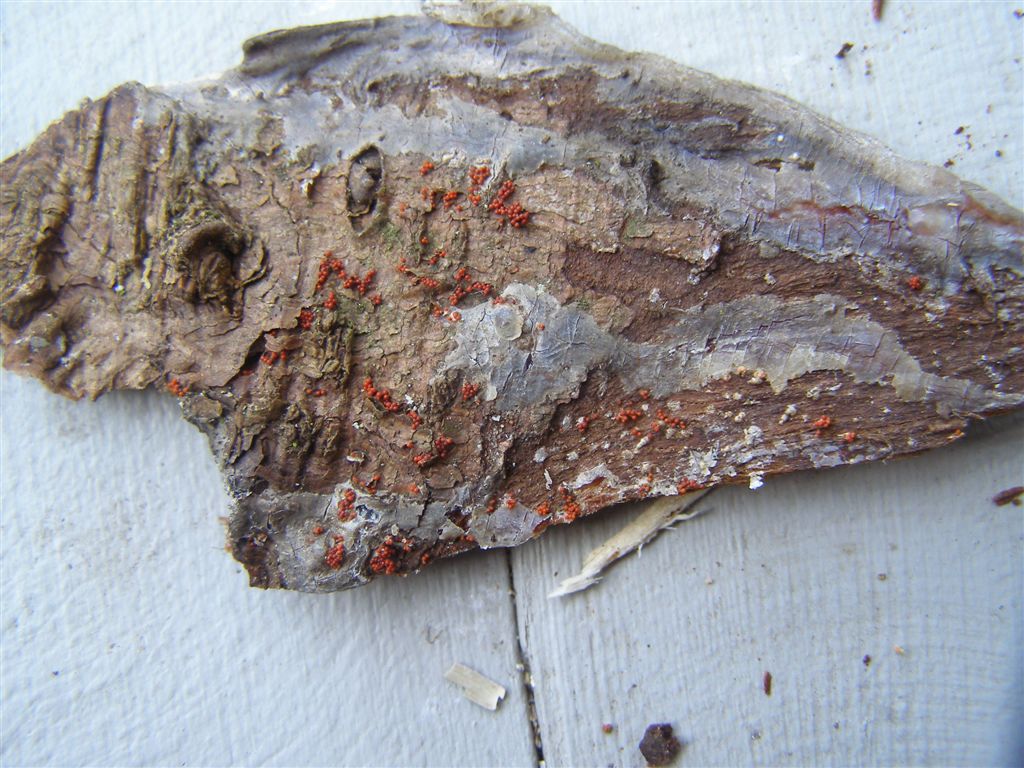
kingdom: Fungi
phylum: Ascomycota
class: Sordariomycetes
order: Hypocreales
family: Nectriaceae
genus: Corinectria
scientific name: Corinectria fuckeliana
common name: grankræft-cinnobersvamp
